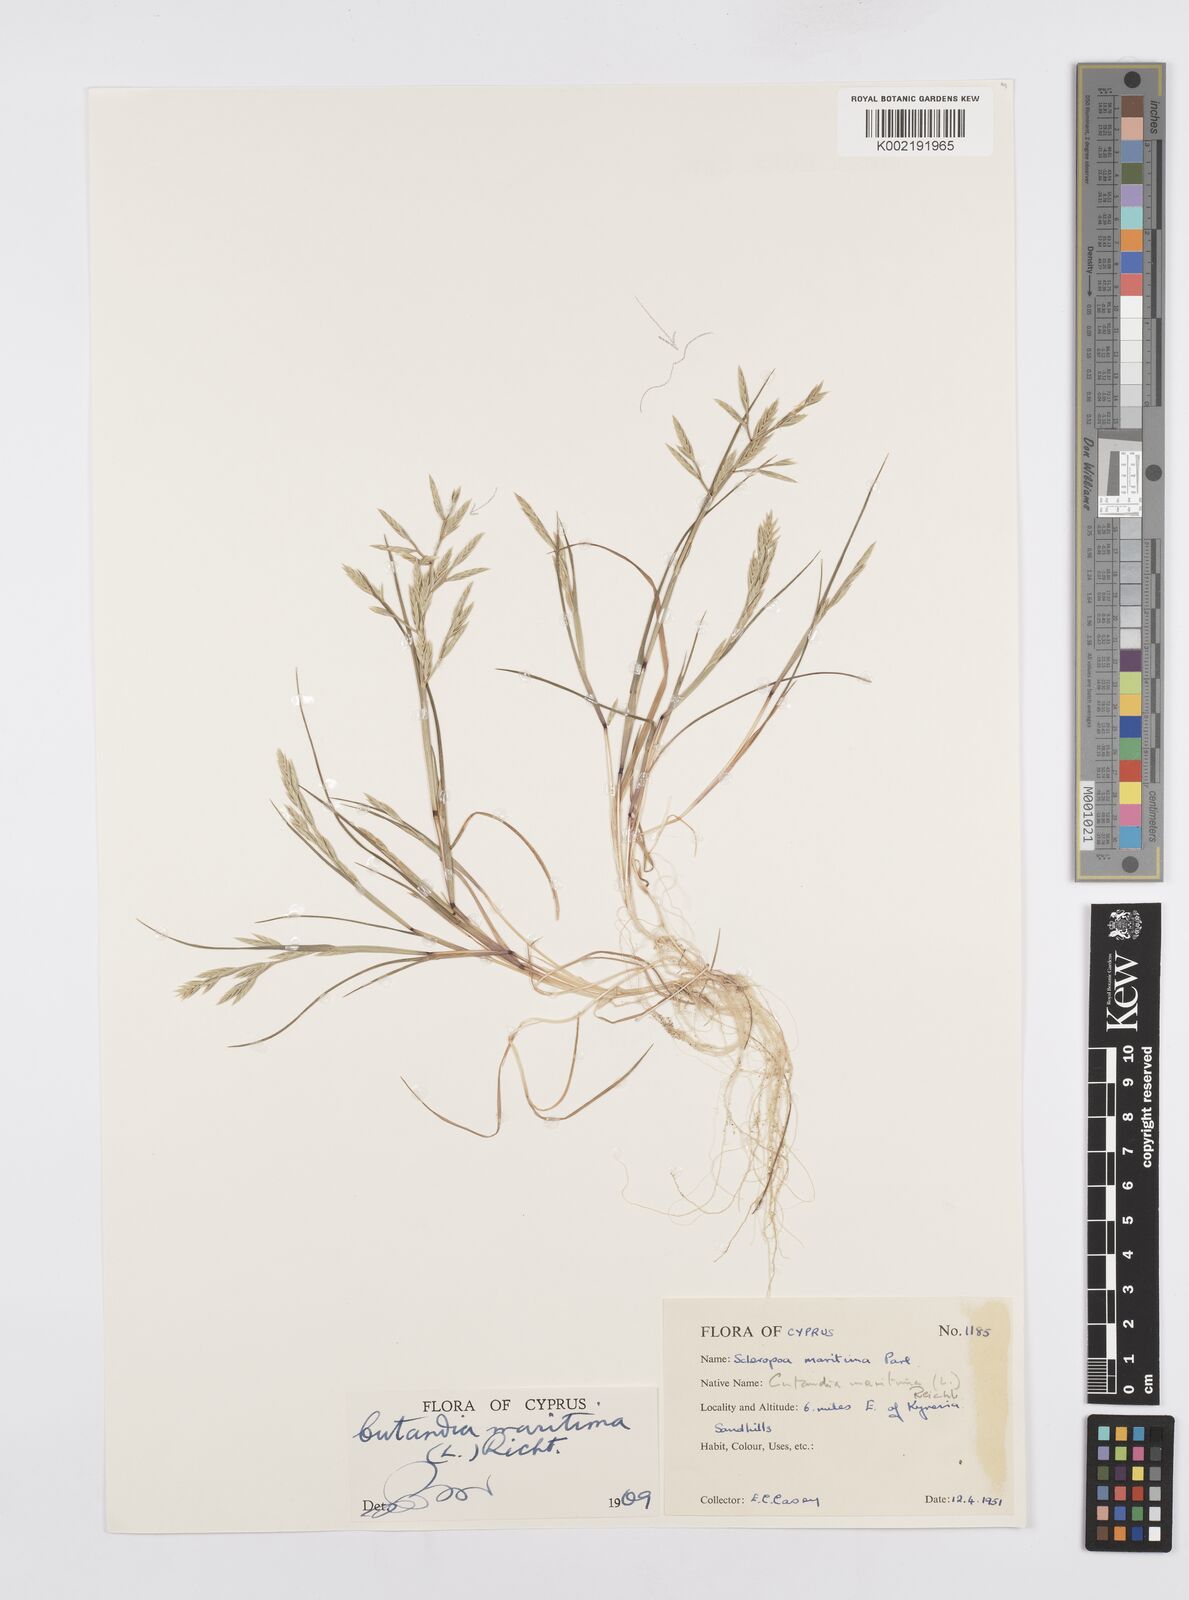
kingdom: Plantae
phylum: Tracheophyta
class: Liliopsida
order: Poales
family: Poaceae
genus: Cutandia
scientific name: Cutandia maritima
